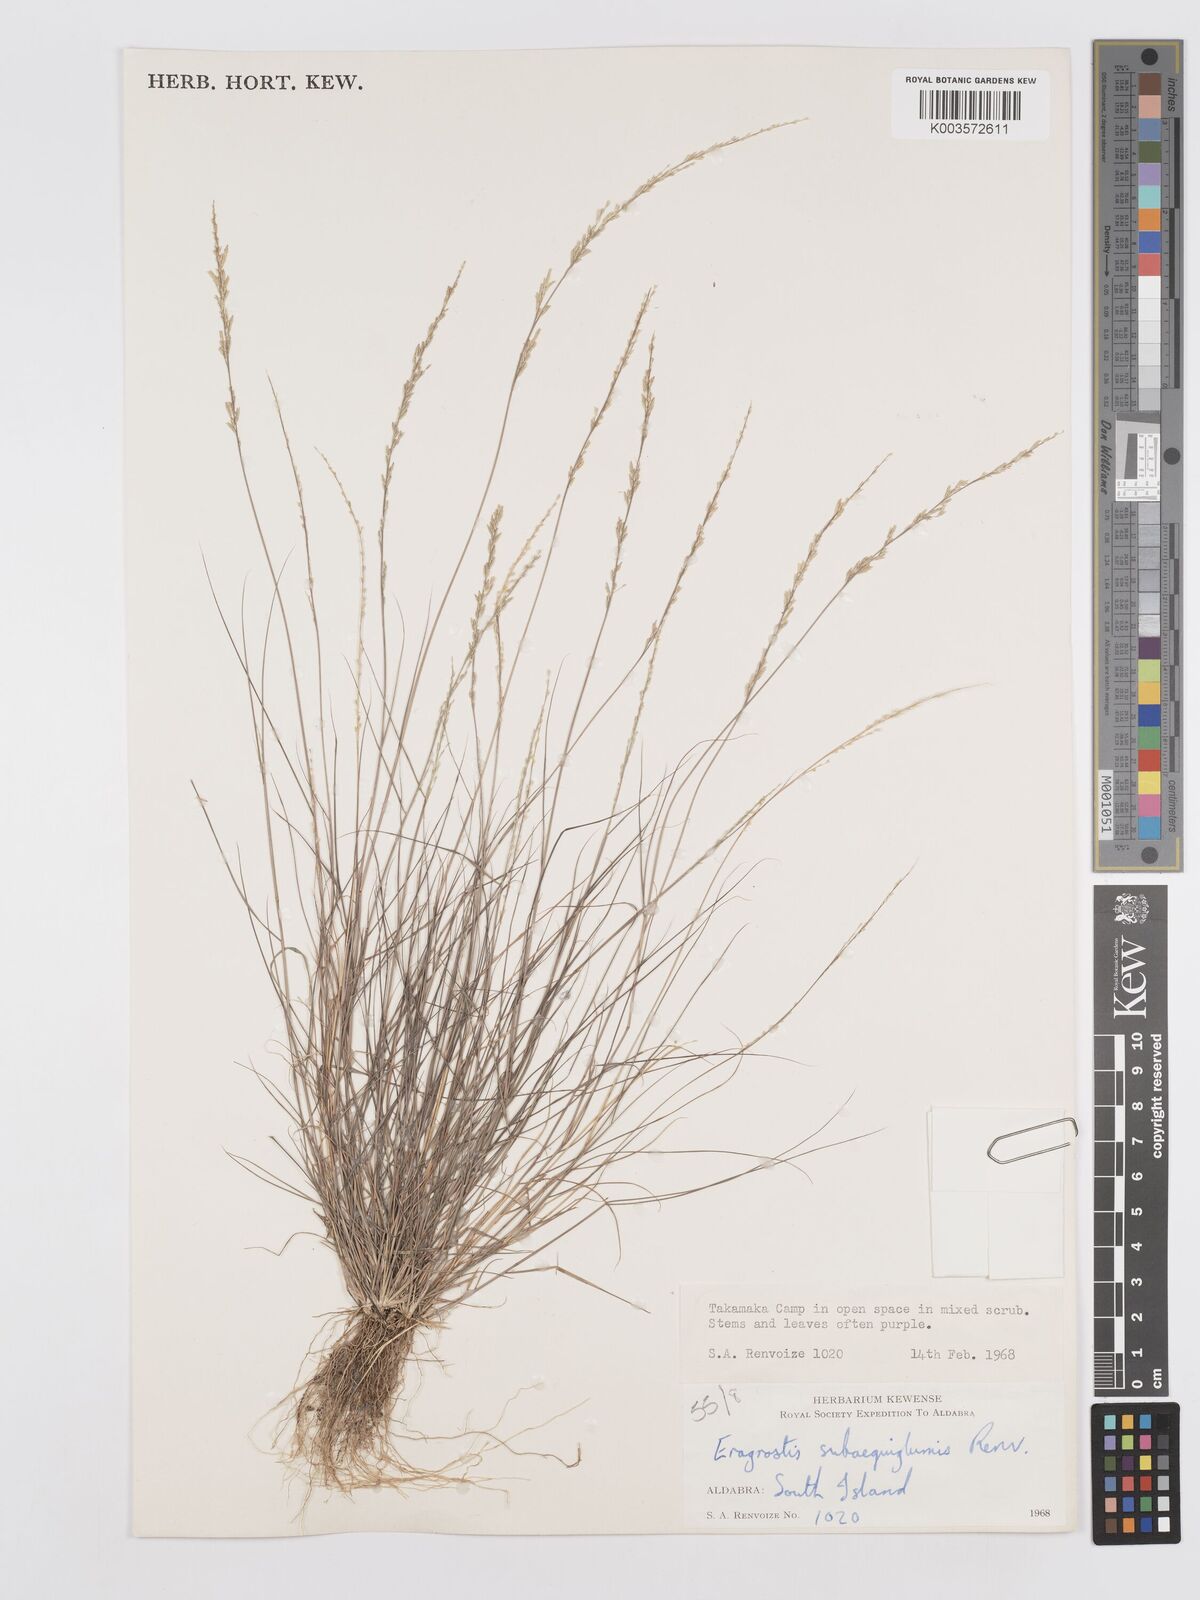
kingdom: Plantae
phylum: Tracheophyta
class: Liliopsida
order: Poales
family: Poaceae
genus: Eragrostis
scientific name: Eragrostis subaequiglumis
